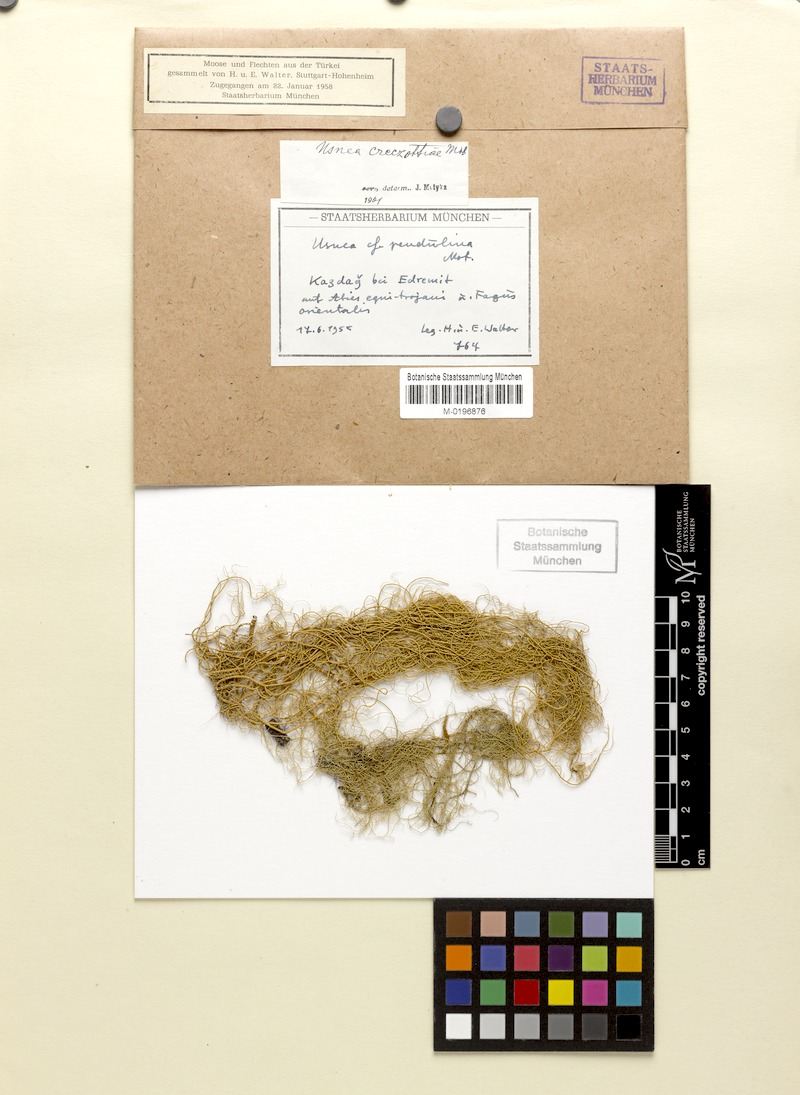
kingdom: Fungi
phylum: Ascomycota
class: Lecanoromycetes
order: Lecanorales
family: Parmeliaceae
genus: Usnea
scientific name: Usnea
